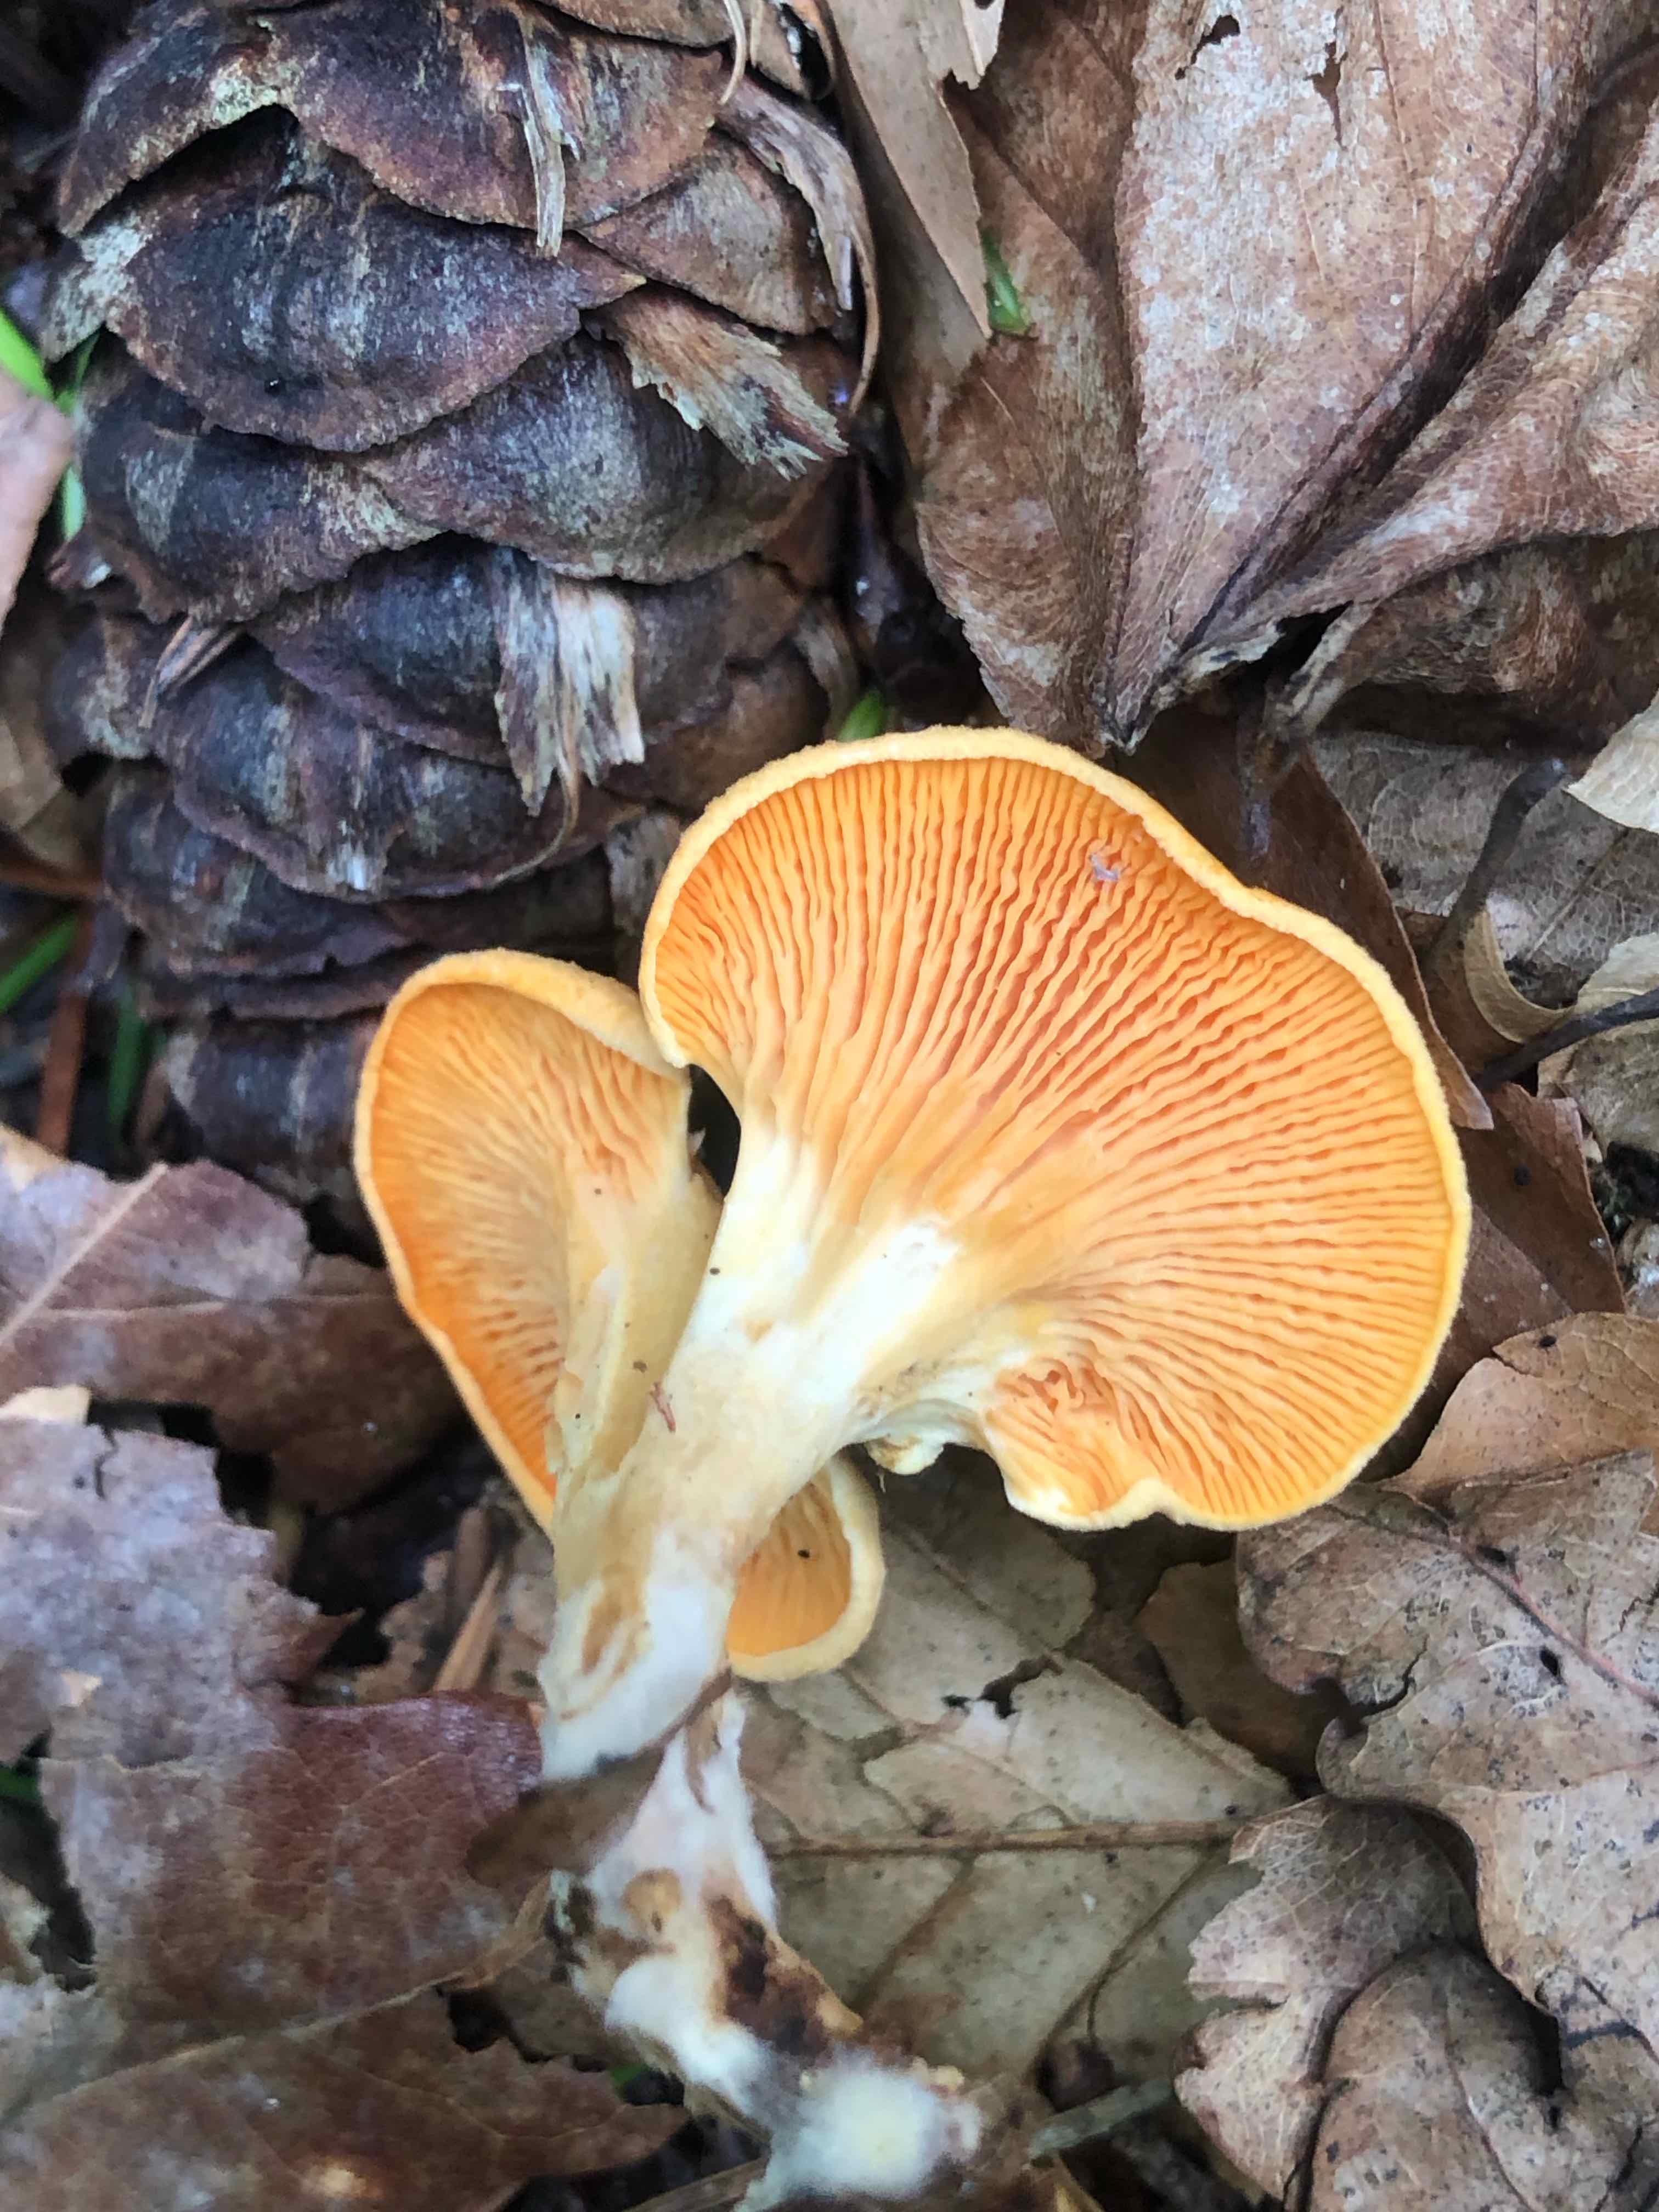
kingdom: Fungi
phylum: Basidiomycota
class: Agaricomycetes
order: Boletales
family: Hygrophoropsidaceae
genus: Hygrophoropsis
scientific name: Hygrophoropsis aurantiaca
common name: almindelig orangekantarel
